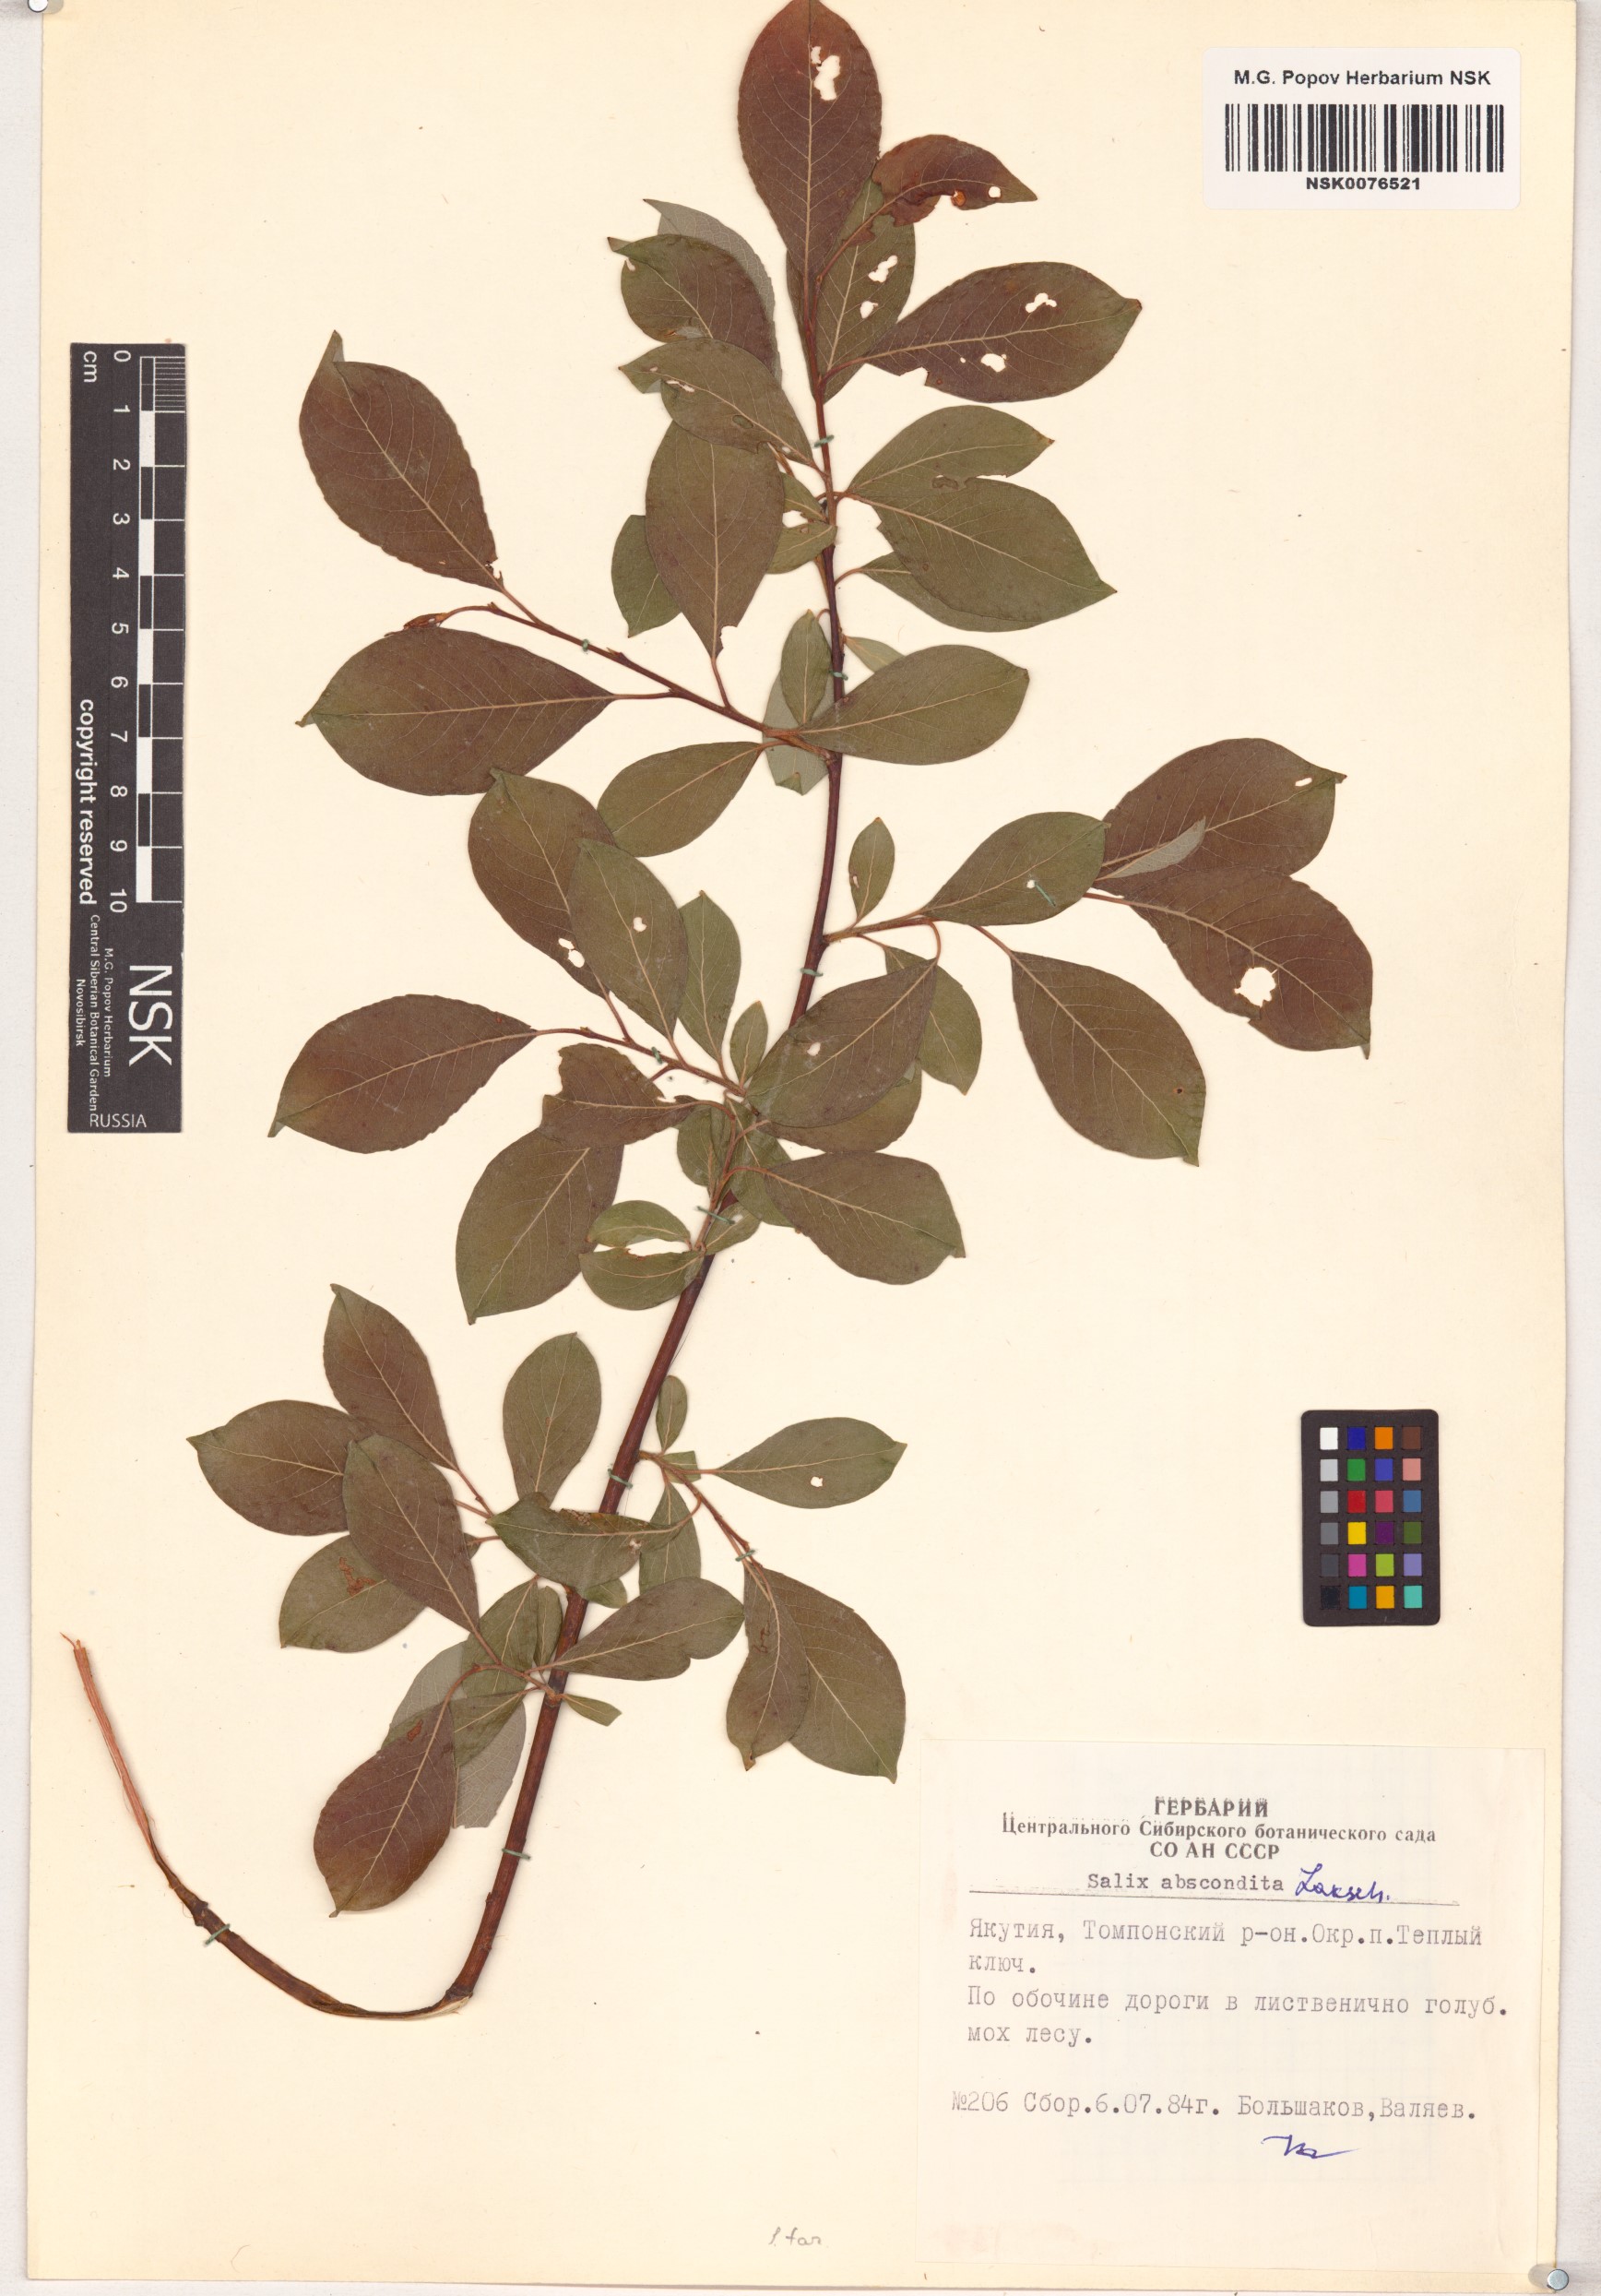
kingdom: Plantae
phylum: Tracheophyta
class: Magnoliopsida
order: Malpighiales
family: Salicaceae
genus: Salix
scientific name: Salix abscondita
